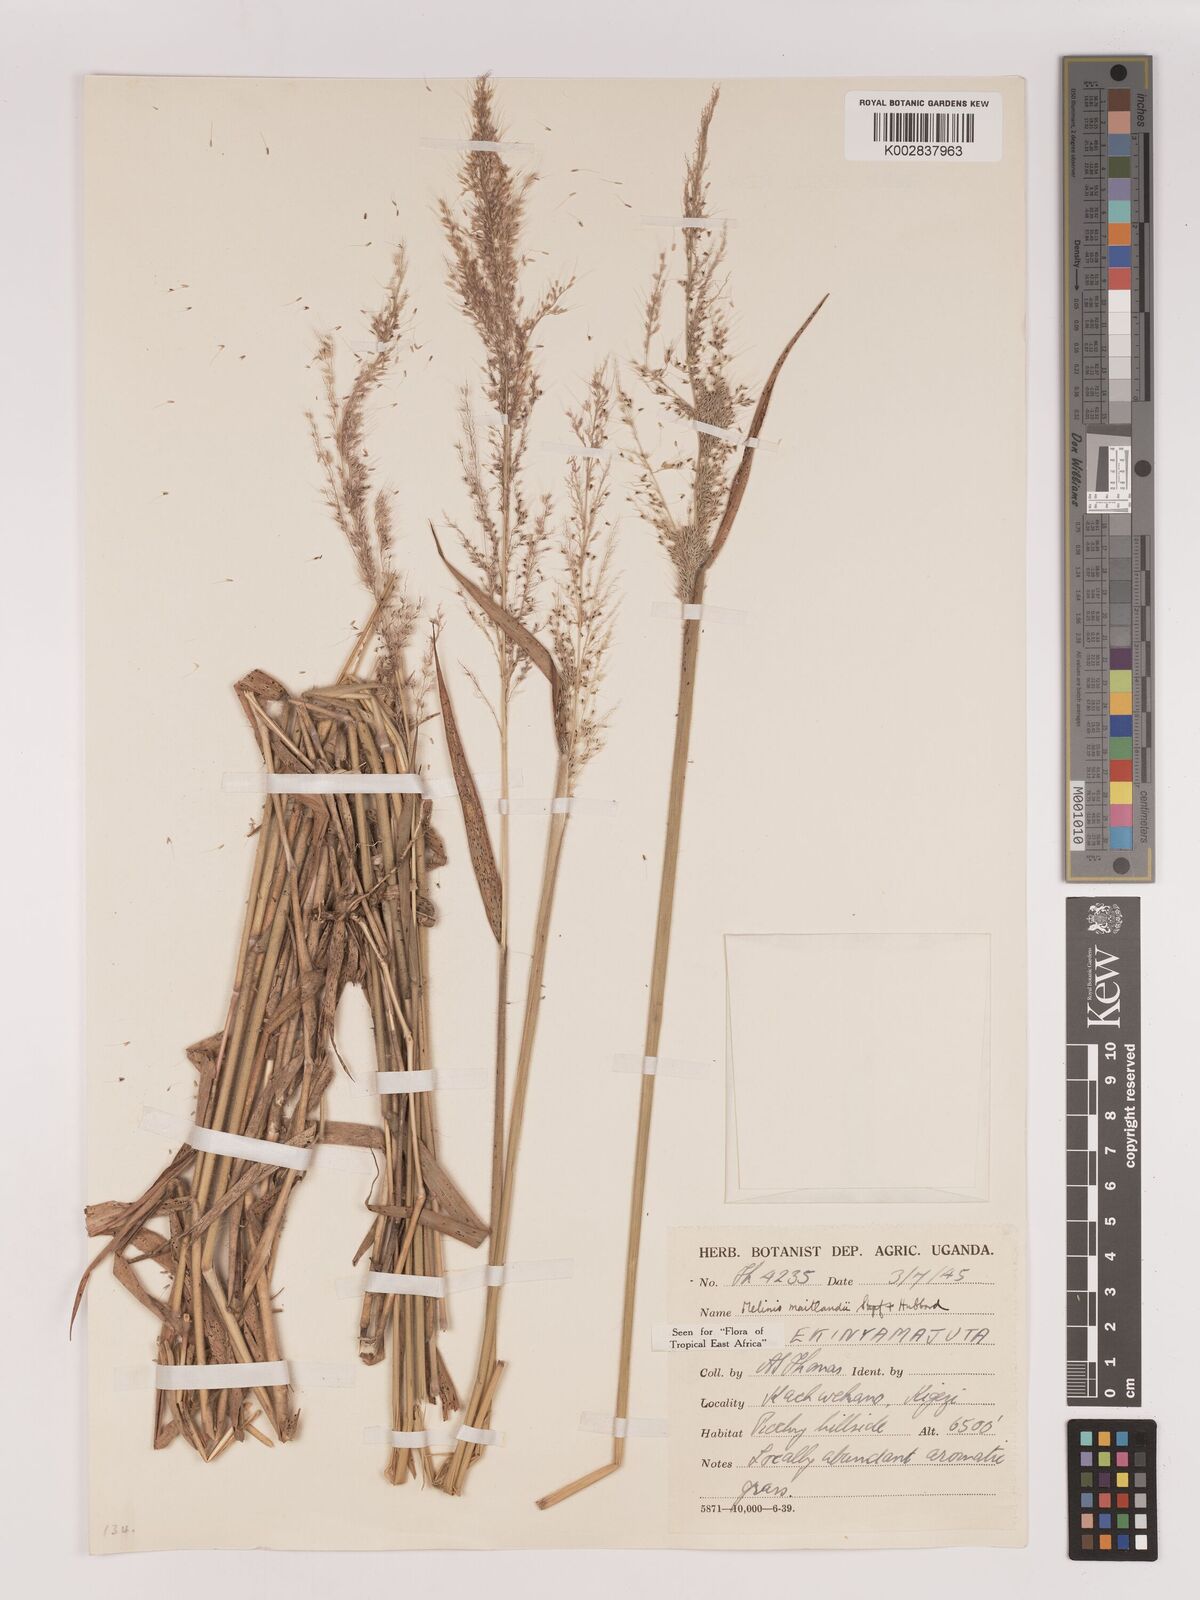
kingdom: Plantae
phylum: Tracheophyta
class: Liliopsida
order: Poales
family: Poaceae
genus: Melinis
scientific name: Melinis minutiflora
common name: Molassesgrass
